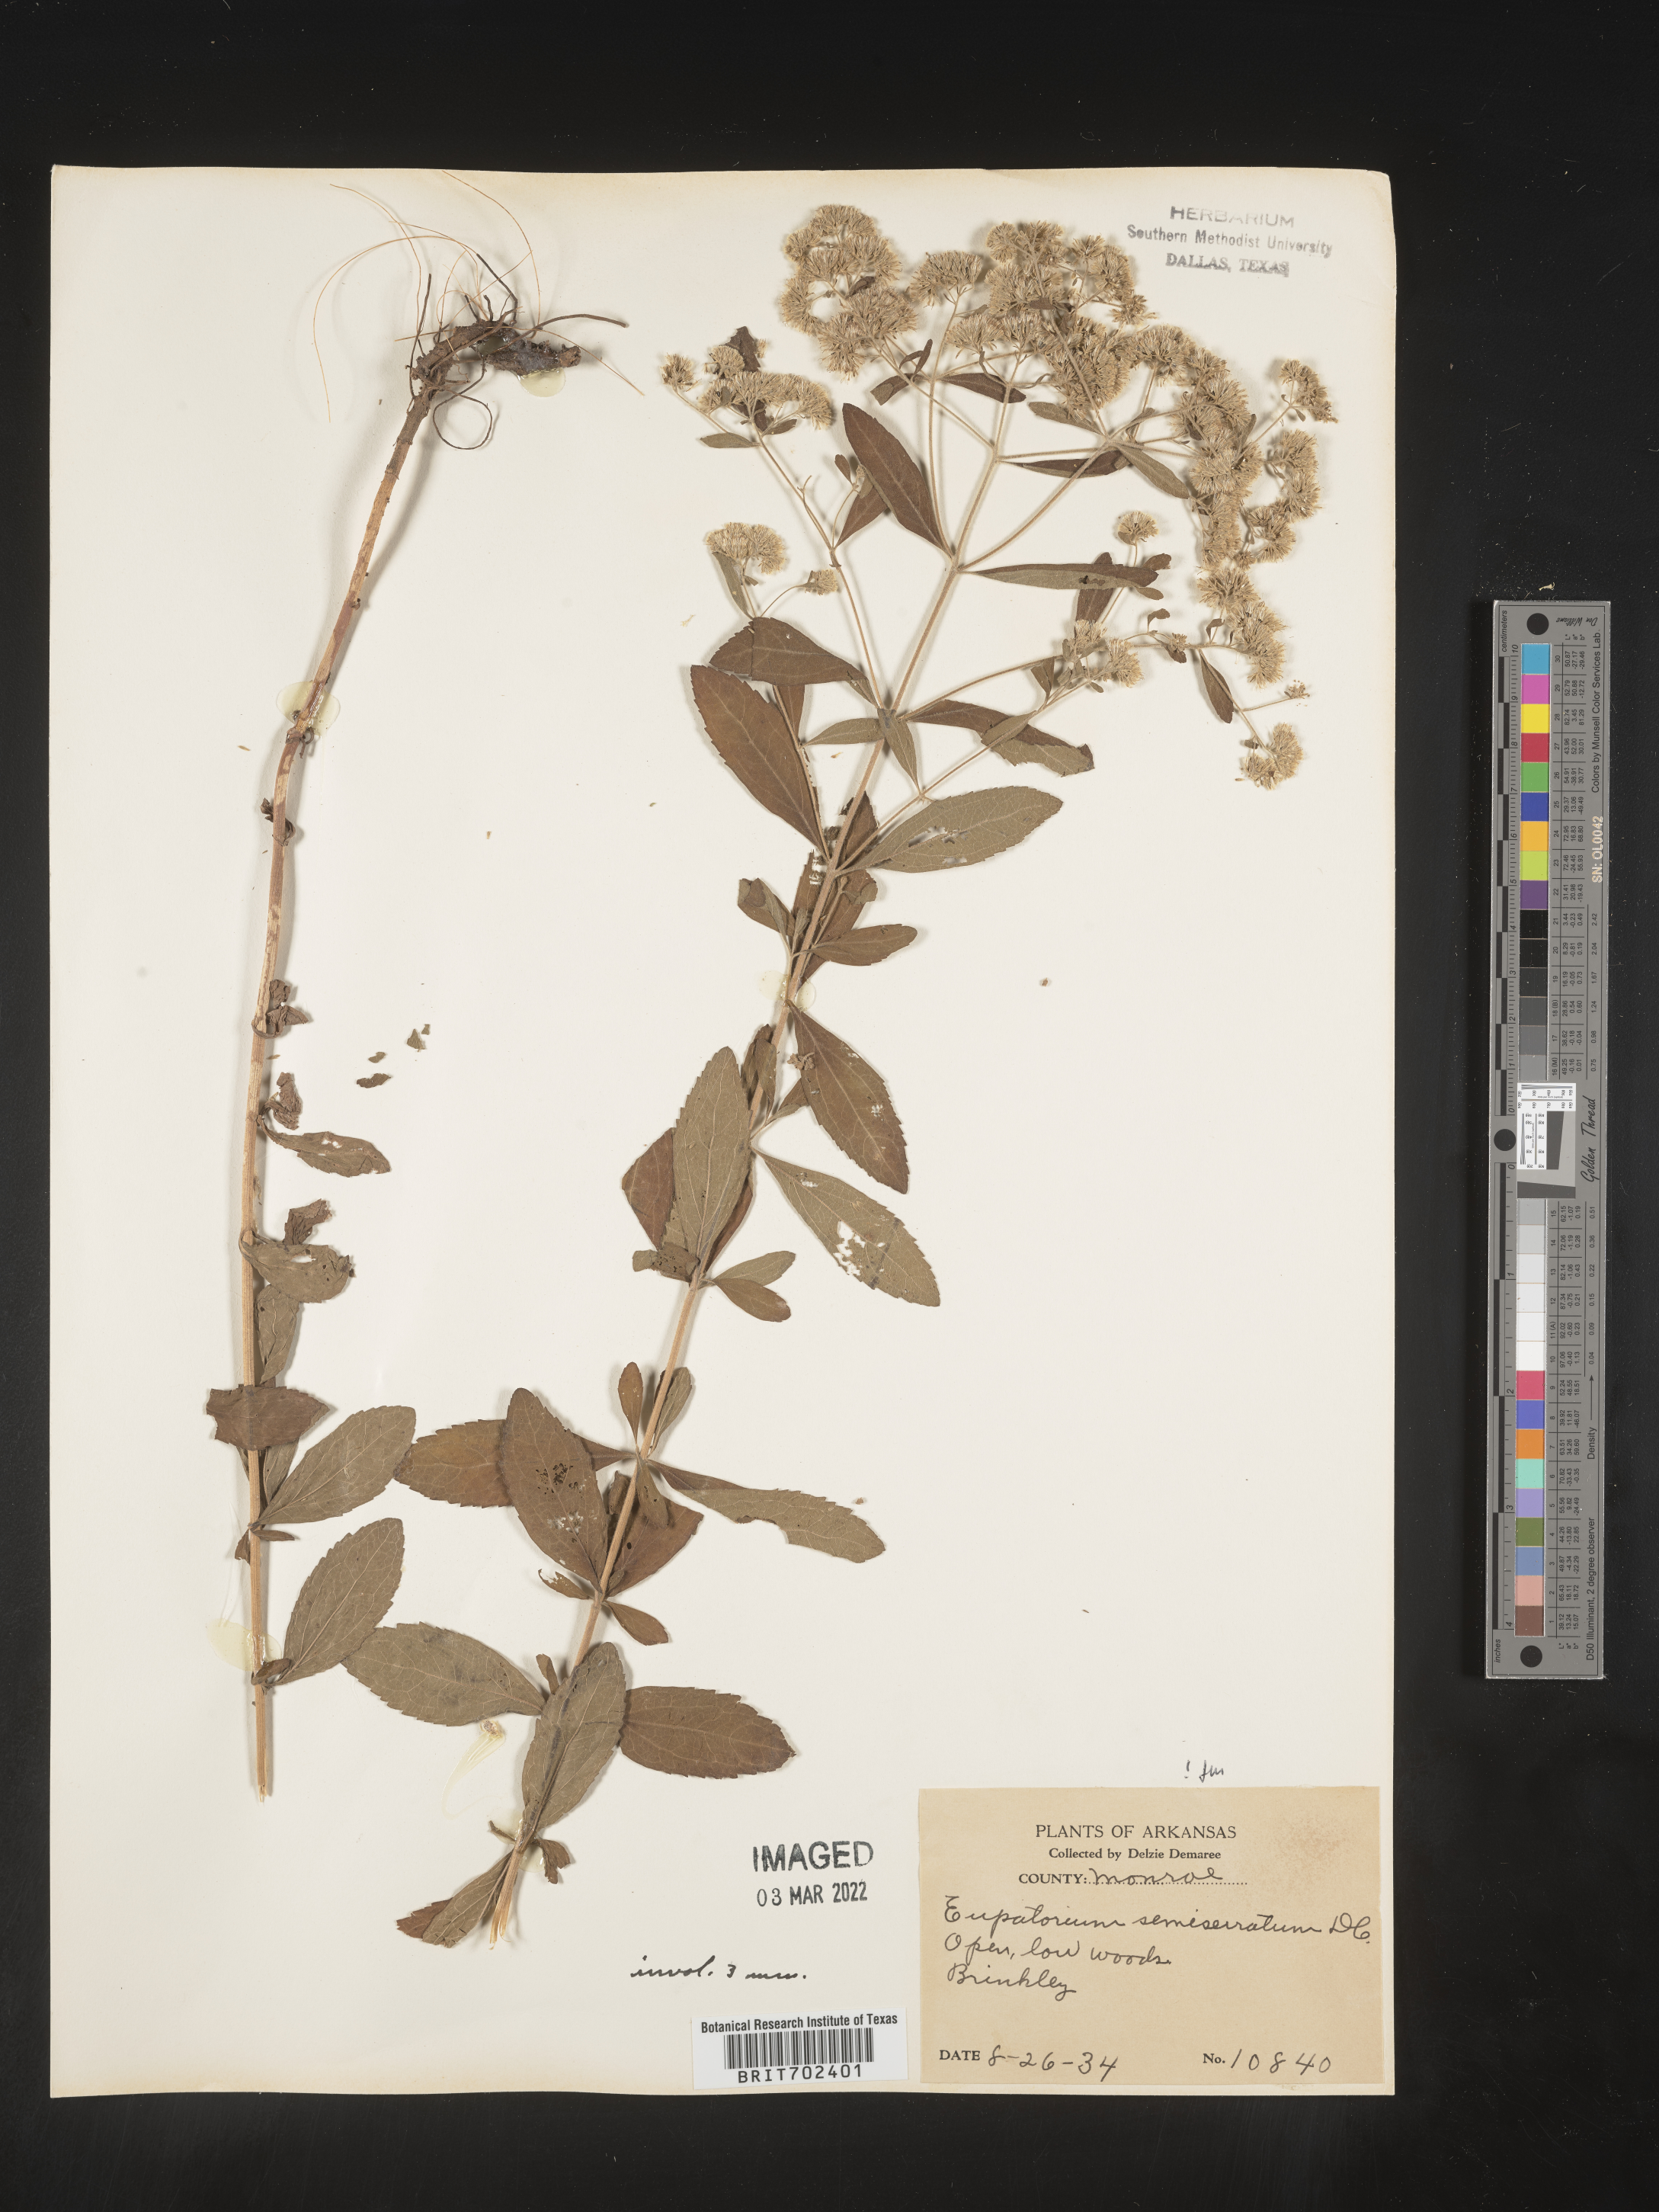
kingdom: Plantae
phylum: Tracheophyta
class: Magnoliopsida
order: Asterales
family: Asteraceae
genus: Eupatorium
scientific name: Eupatorium semiserratum
